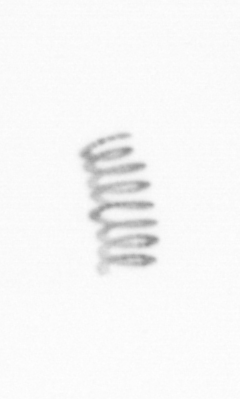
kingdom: Chromista
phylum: Ochrophyta
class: Bacillariophyceae
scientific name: Bacillariophyceae
